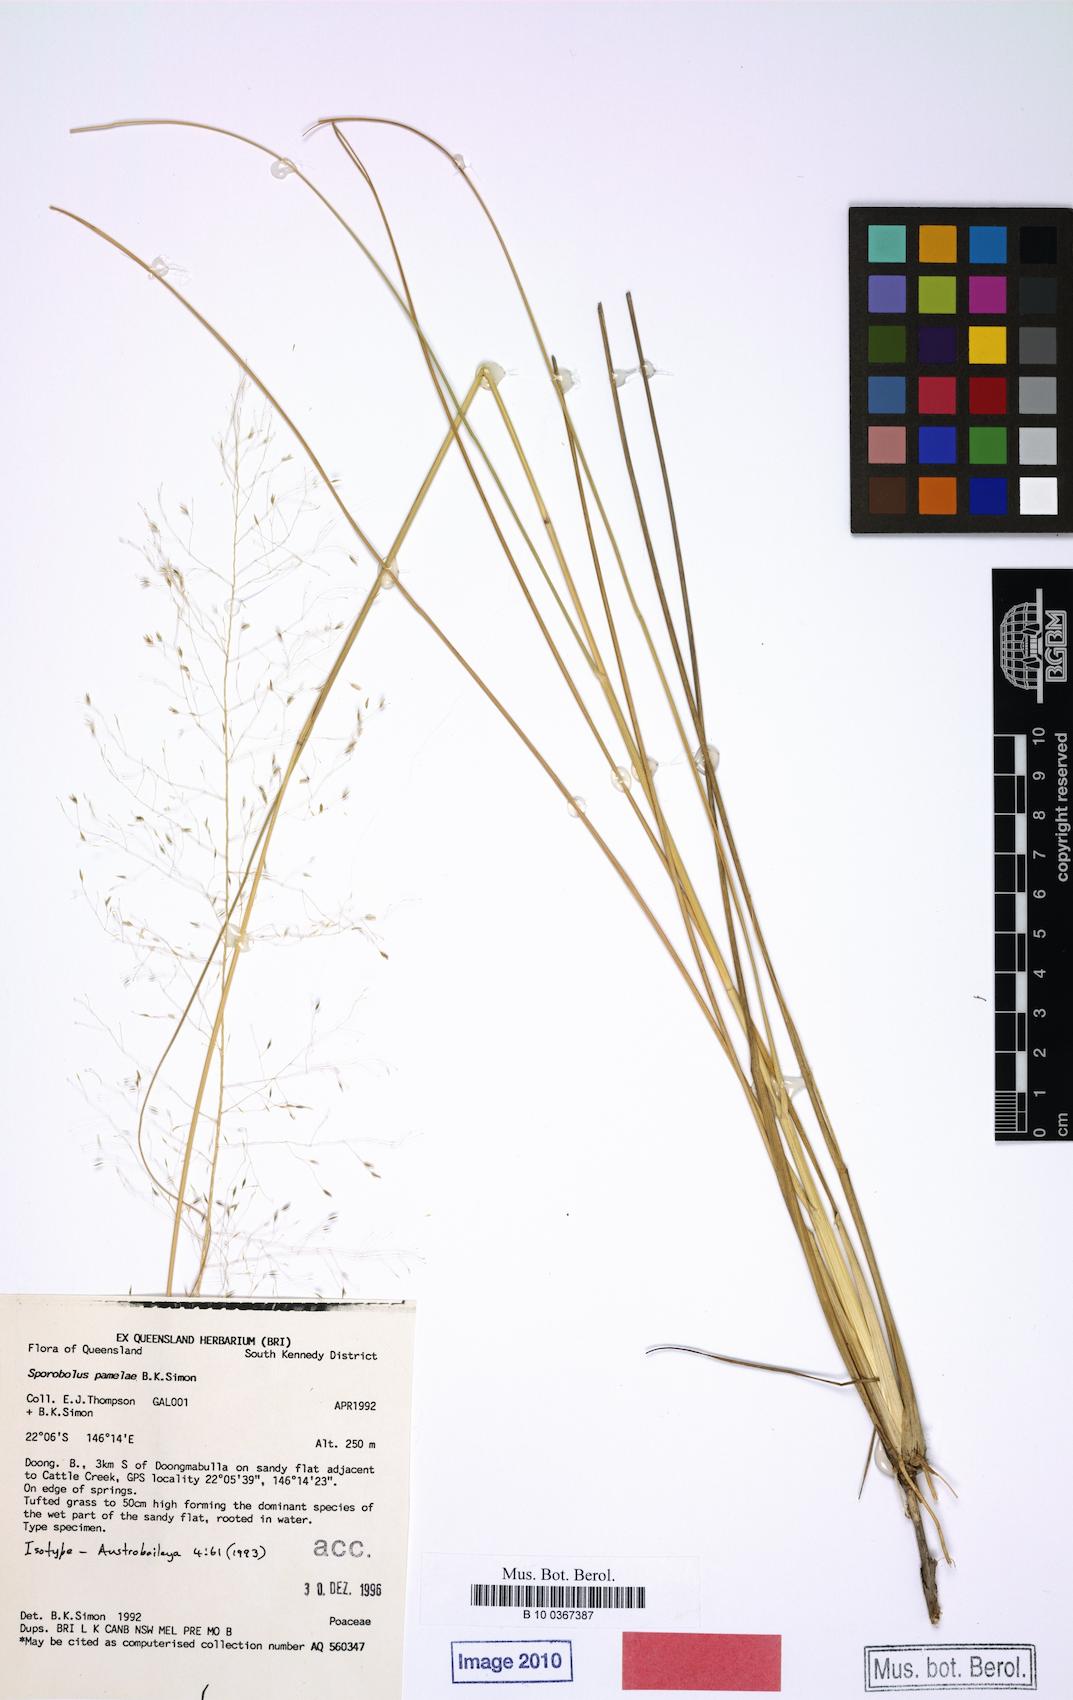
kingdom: Plantae
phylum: Tracheophyta
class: Liliopsida
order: Poales
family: Poaceae
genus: Sporobolus
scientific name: Sporobolus pamelae
